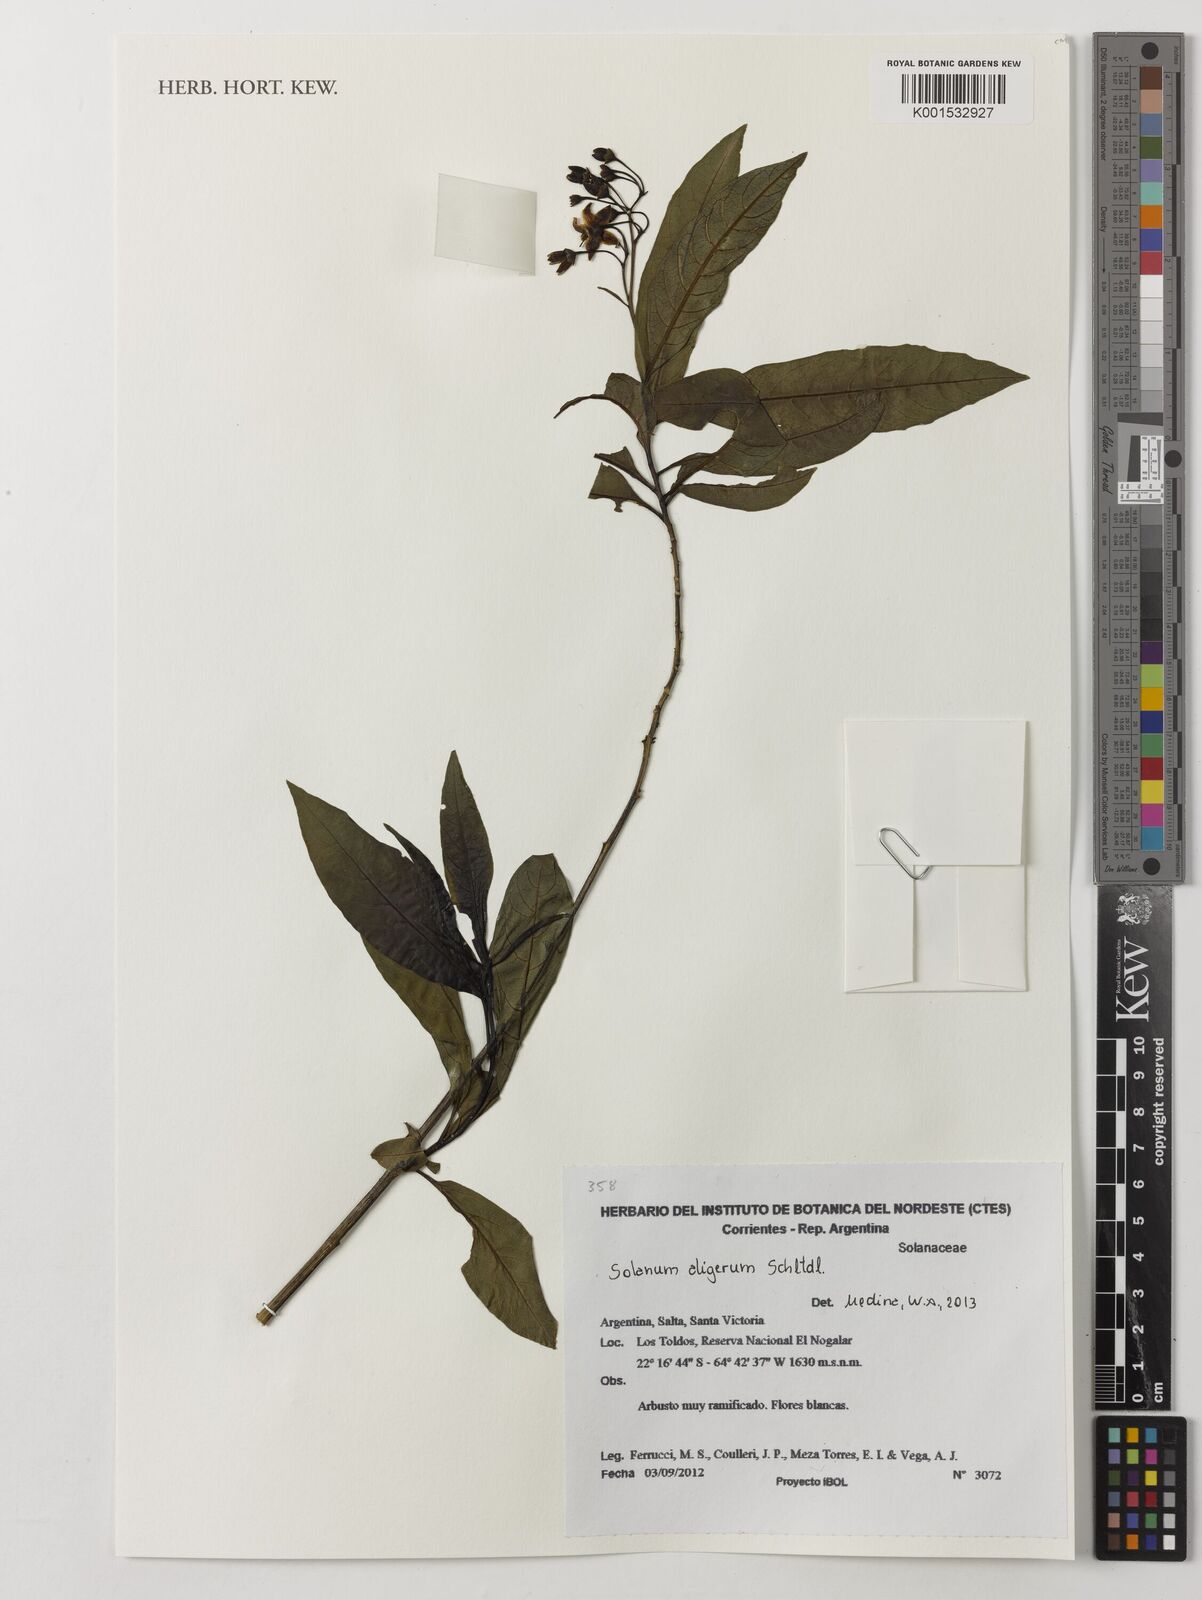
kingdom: Plantae
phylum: Tracheophyta
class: Magnoliopsida
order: Solanales
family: Solanaceae
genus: Solanum
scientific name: Solanum aligerum
